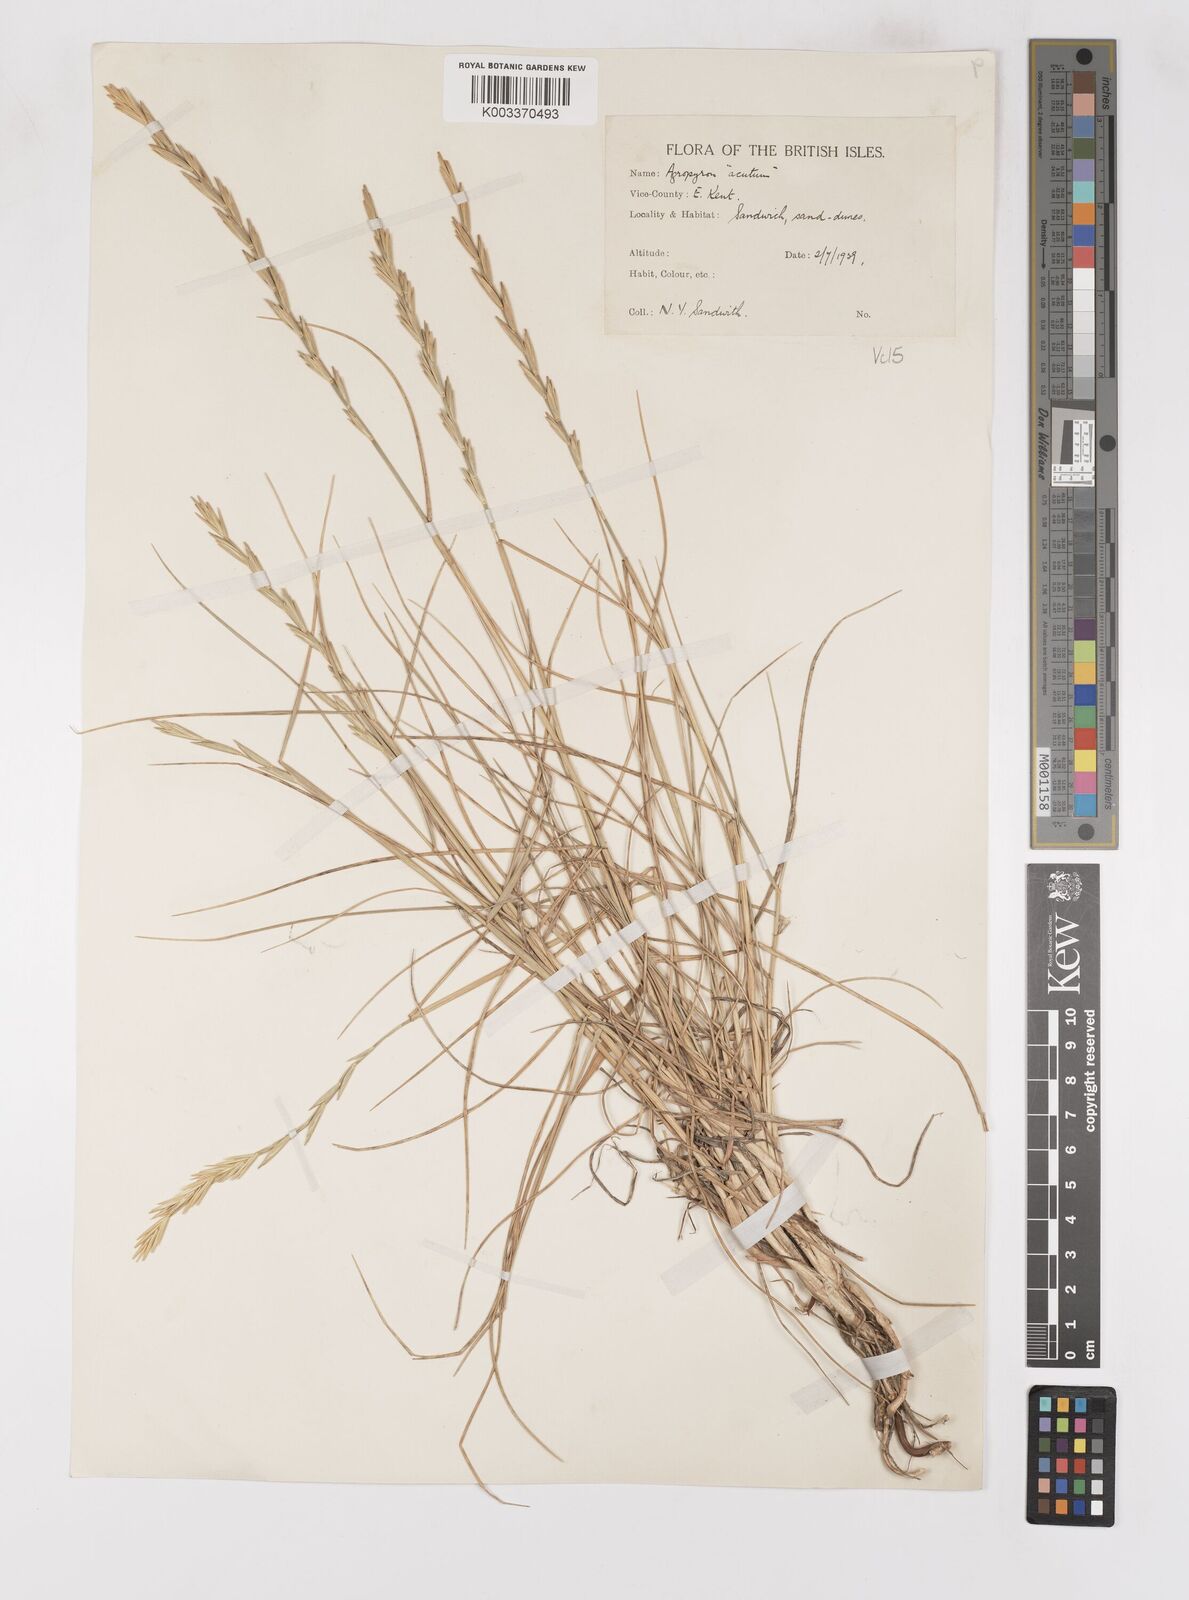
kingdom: Plantae
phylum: Tracheophyta
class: Liliopsida
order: Poales
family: Poaceae
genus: Thinoelymus
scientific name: Thinoelymus obtusiusculus
